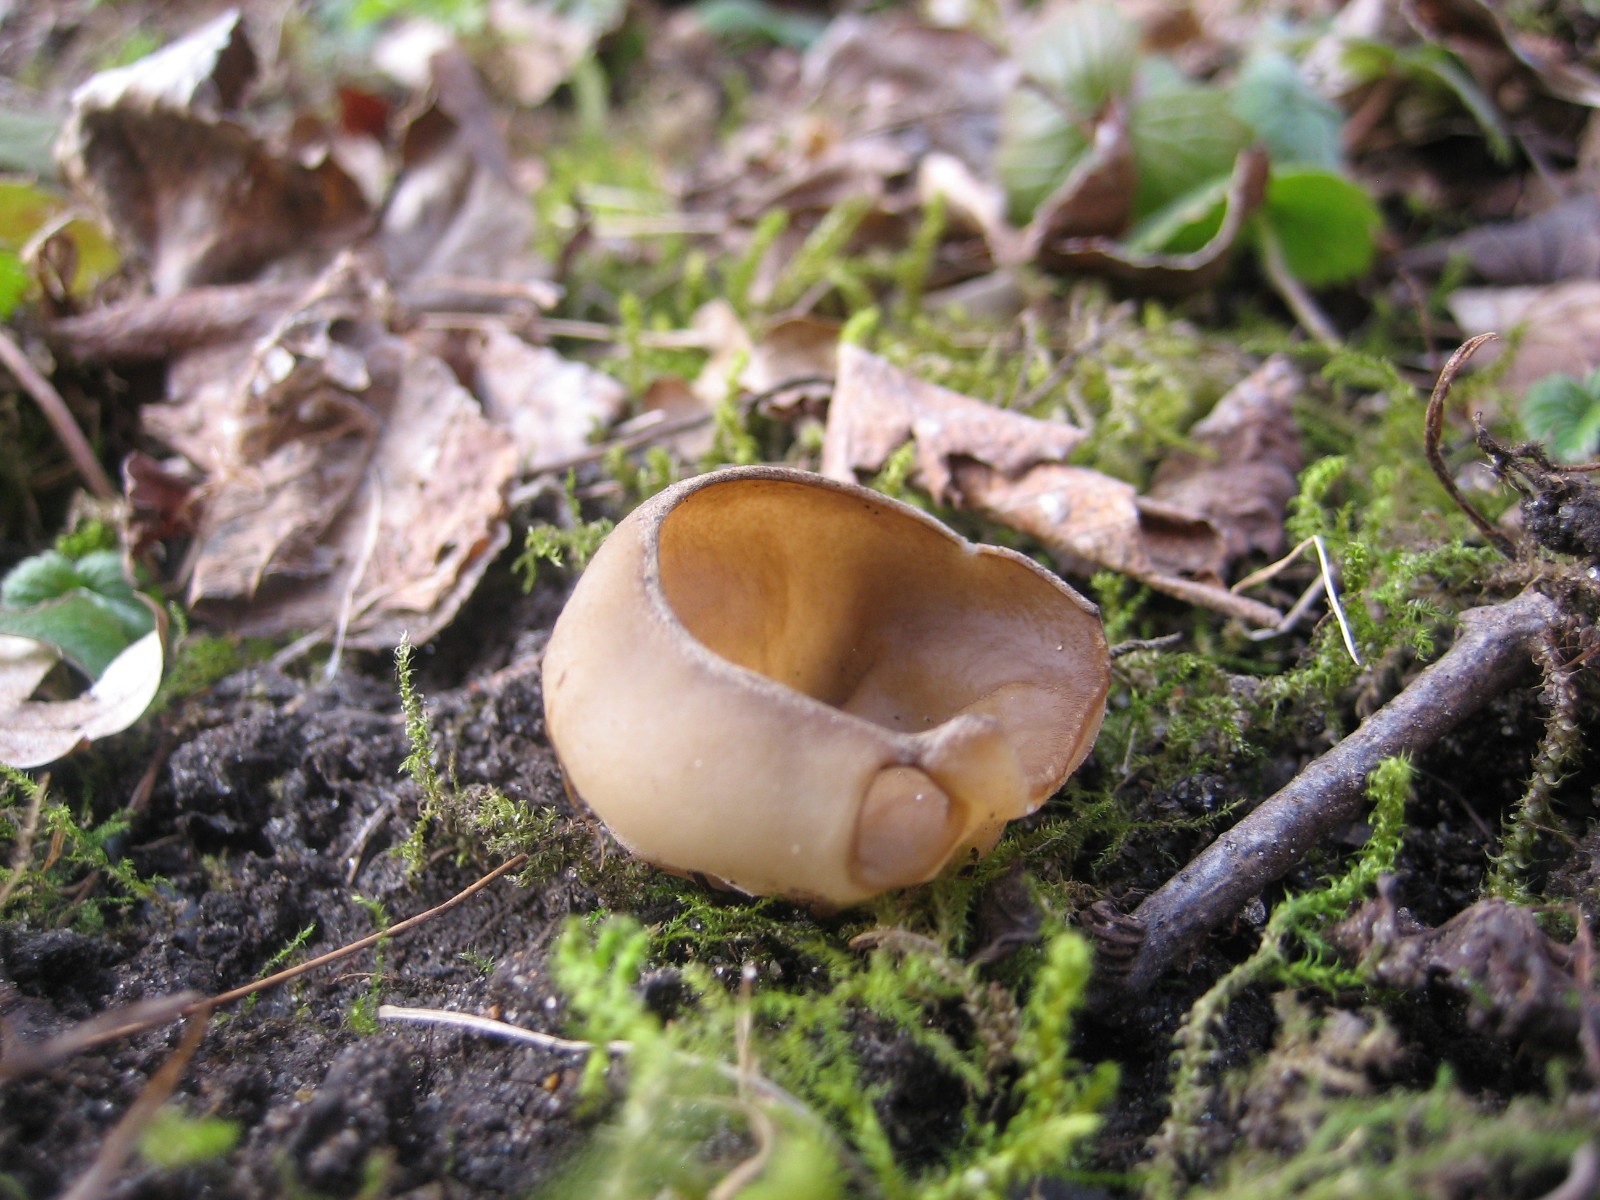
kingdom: Fungi
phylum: Ascomycota
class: Pezizomycetes
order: Pezizales
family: Morchellaceae
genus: Disciotis
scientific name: Disciotis venosa
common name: klor-bægermorkel
